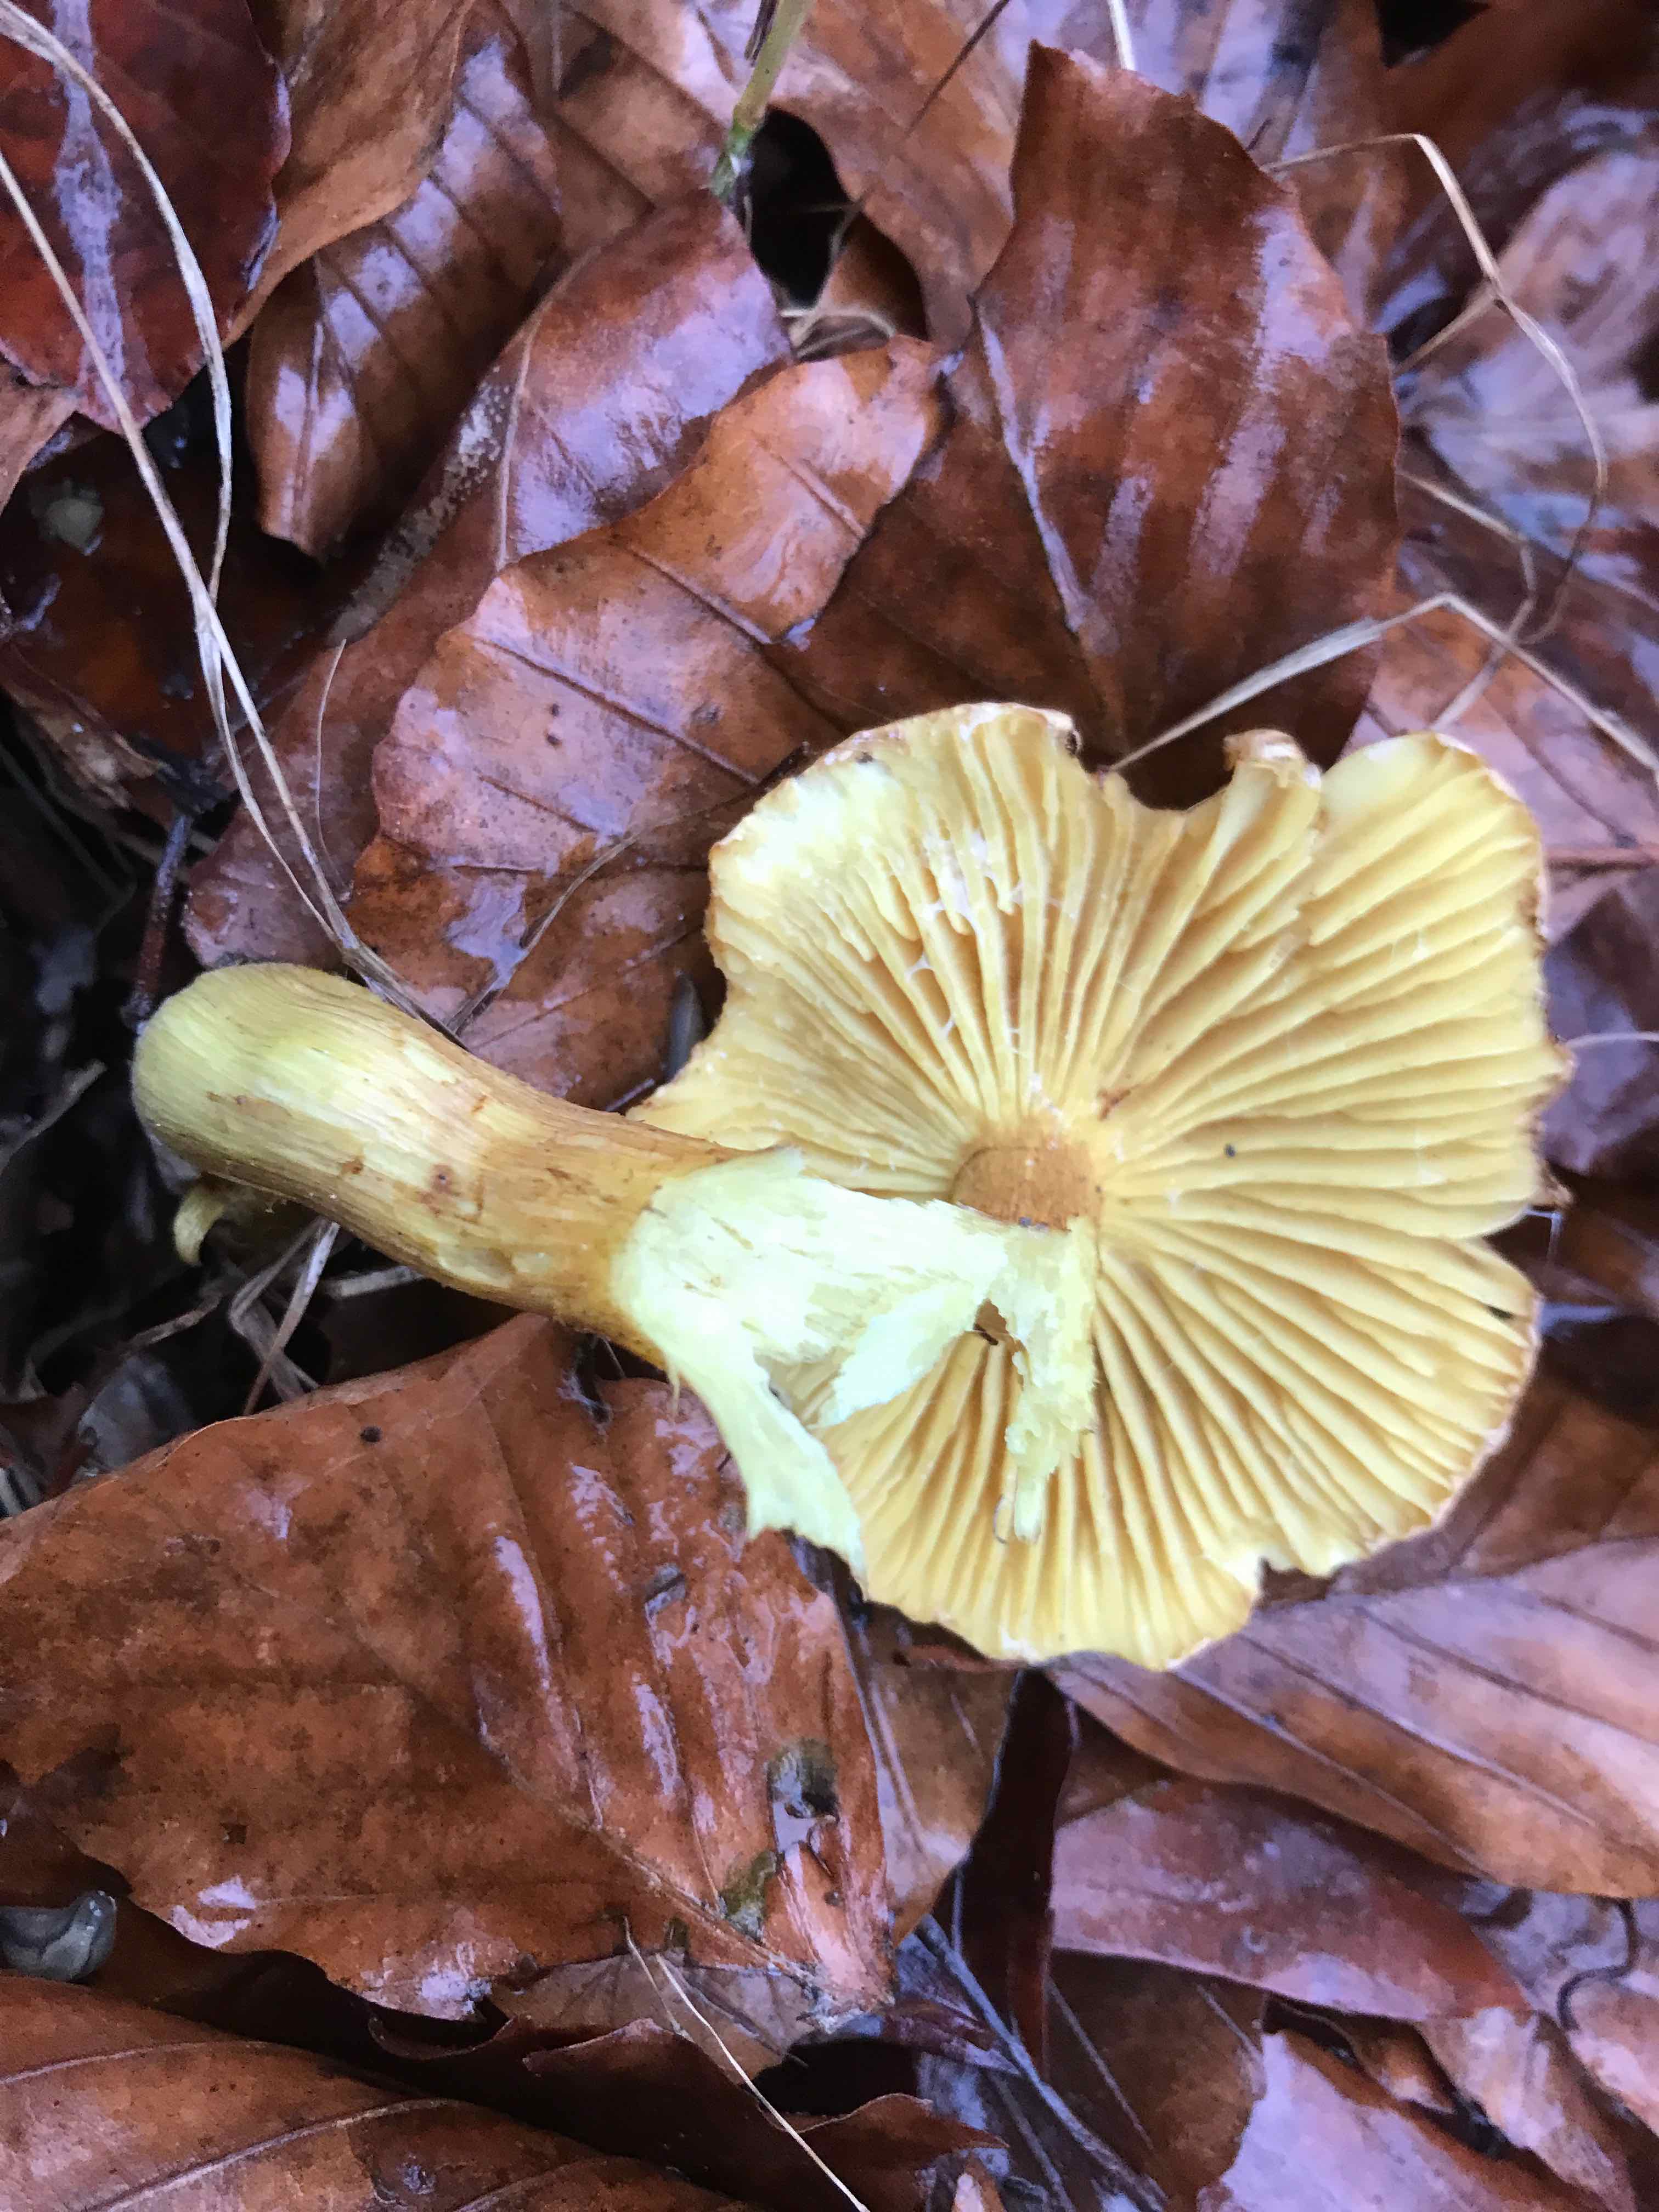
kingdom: Fungi
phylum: Basidiomycota
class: Agaricomycetes
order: Agaricales
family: Tricholomataceae
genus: Tricholoma
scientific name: Tricholoma sulphureum
